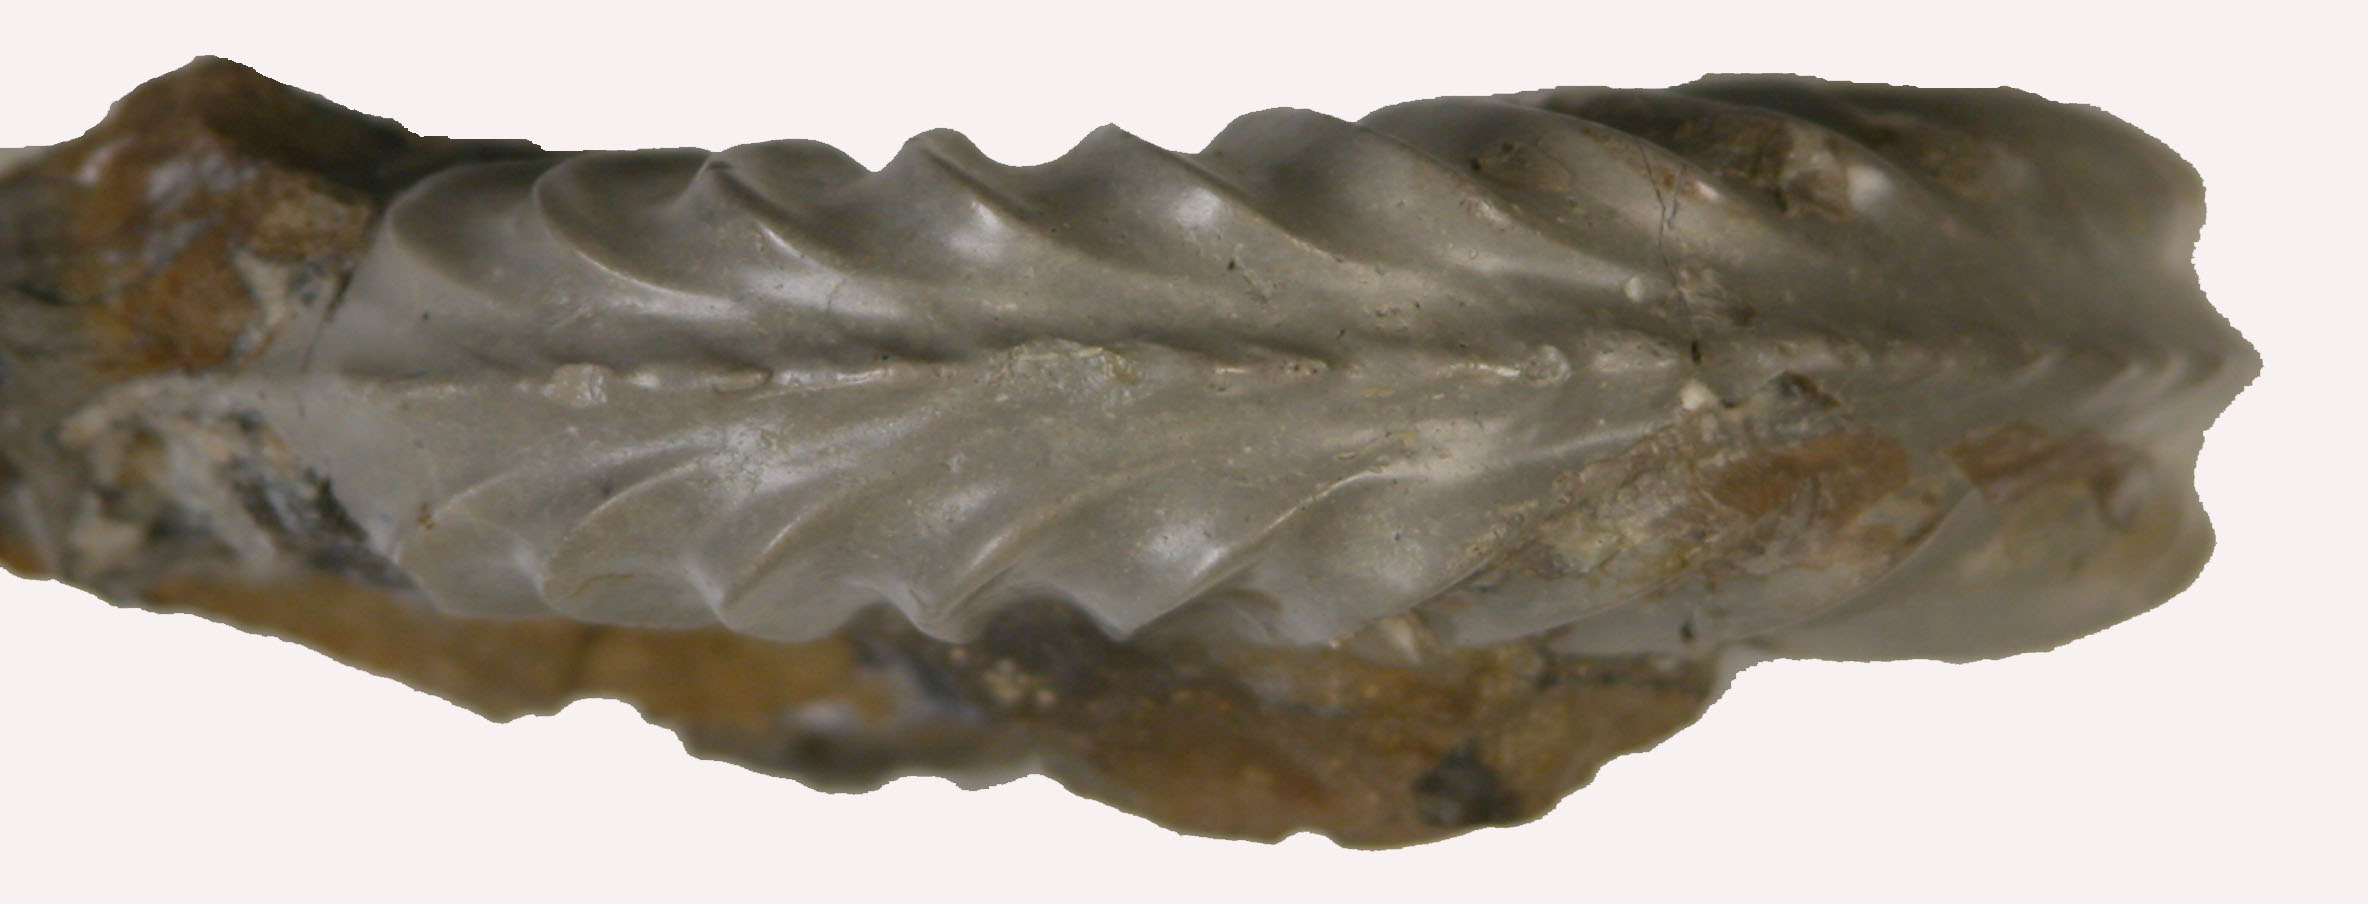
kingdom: Animalia
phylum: Mollusca
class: Cephalopoda
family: Amaltheidae
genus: Pleuroceras
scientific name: Pleuroceras solare
